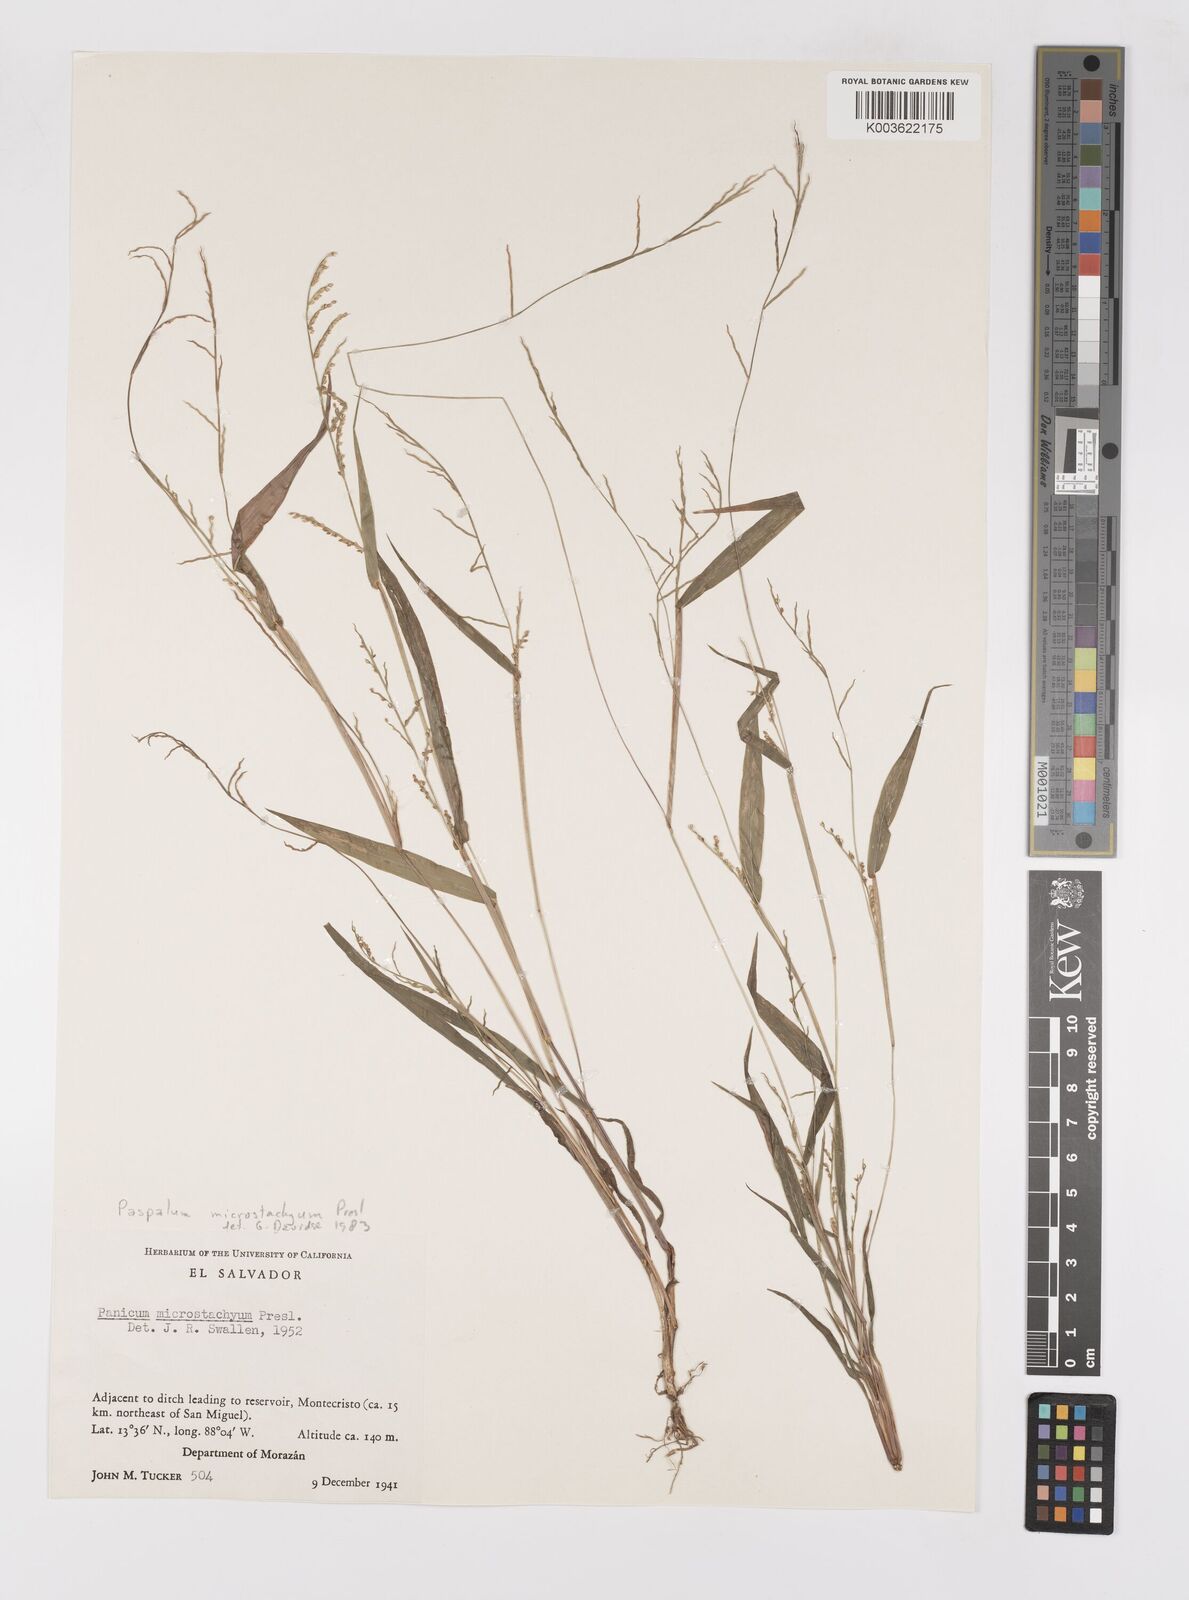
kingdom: Plantae
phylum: Tracheophyta
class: Liliopsida
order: Poales
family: Poaceae
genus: Paspalum
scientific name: Paspalum microstachyum
